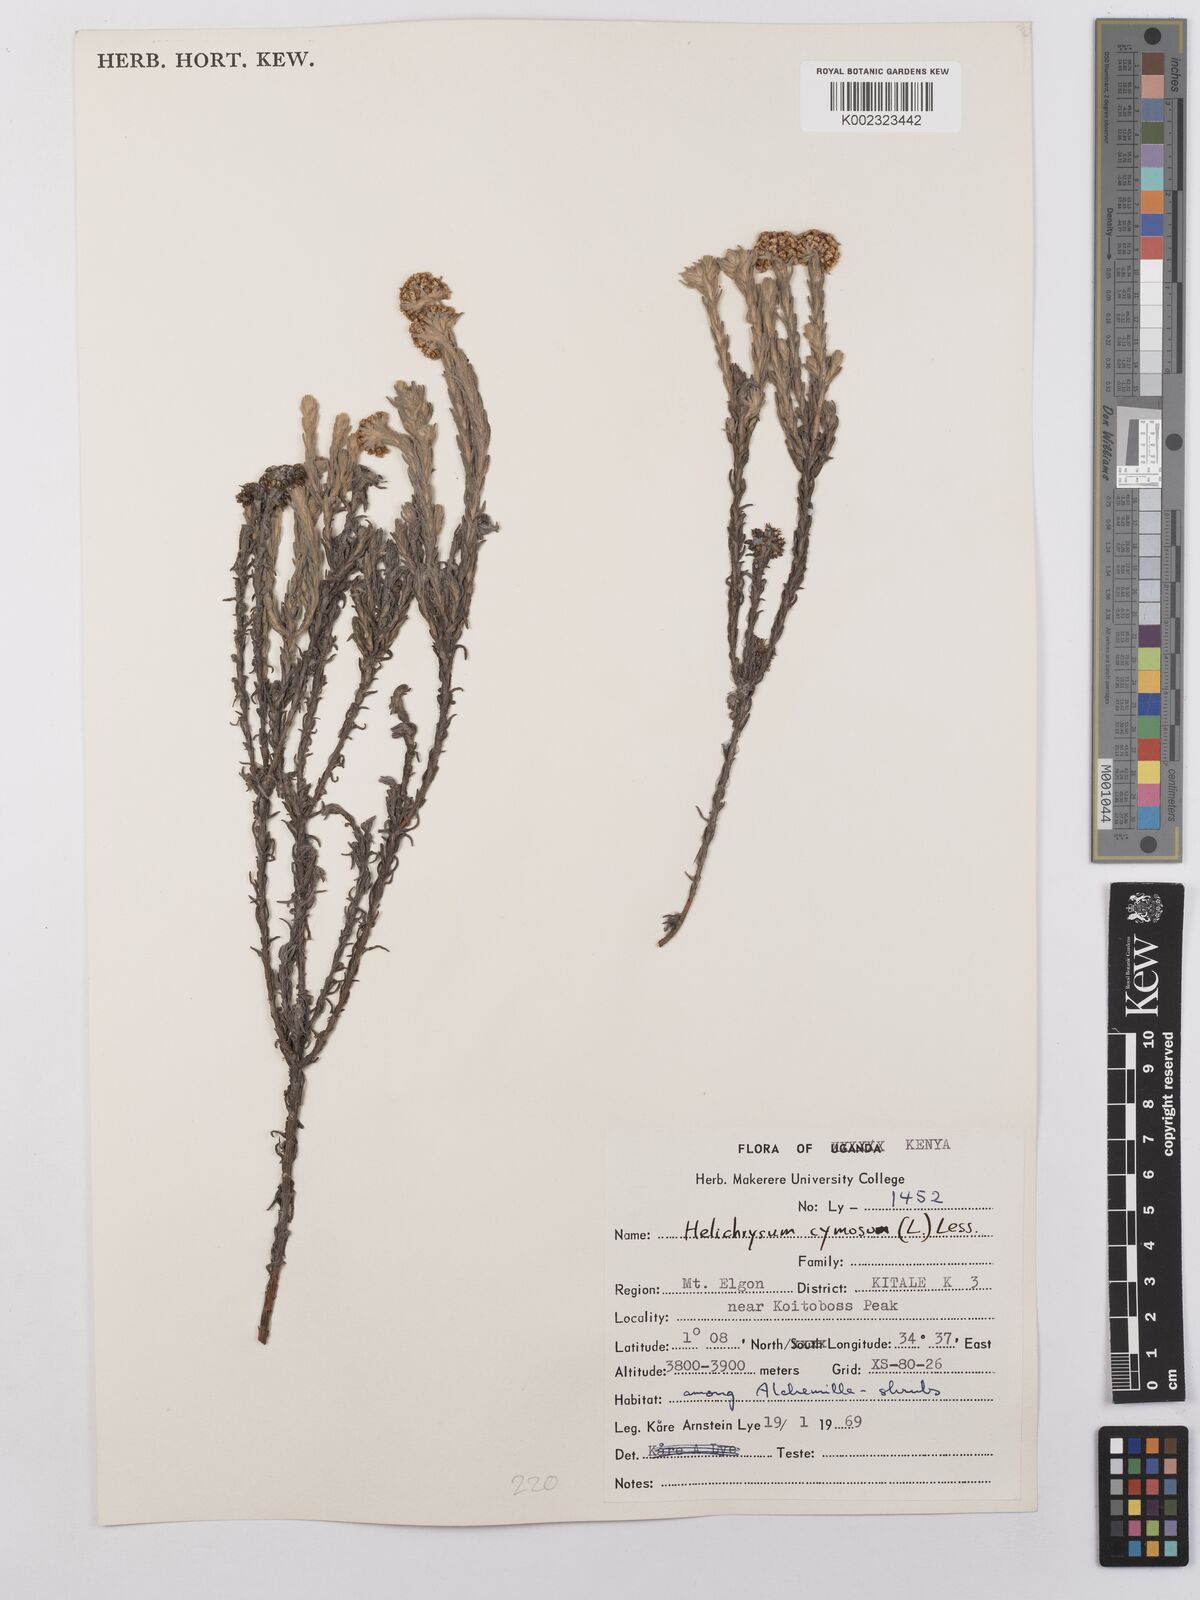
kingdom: Plantae
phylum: Tracheophyta
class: Magnoliopsida
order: Asterales
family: Asteraceae
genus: Helichrysum
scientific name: Helichrysum forskahlii
